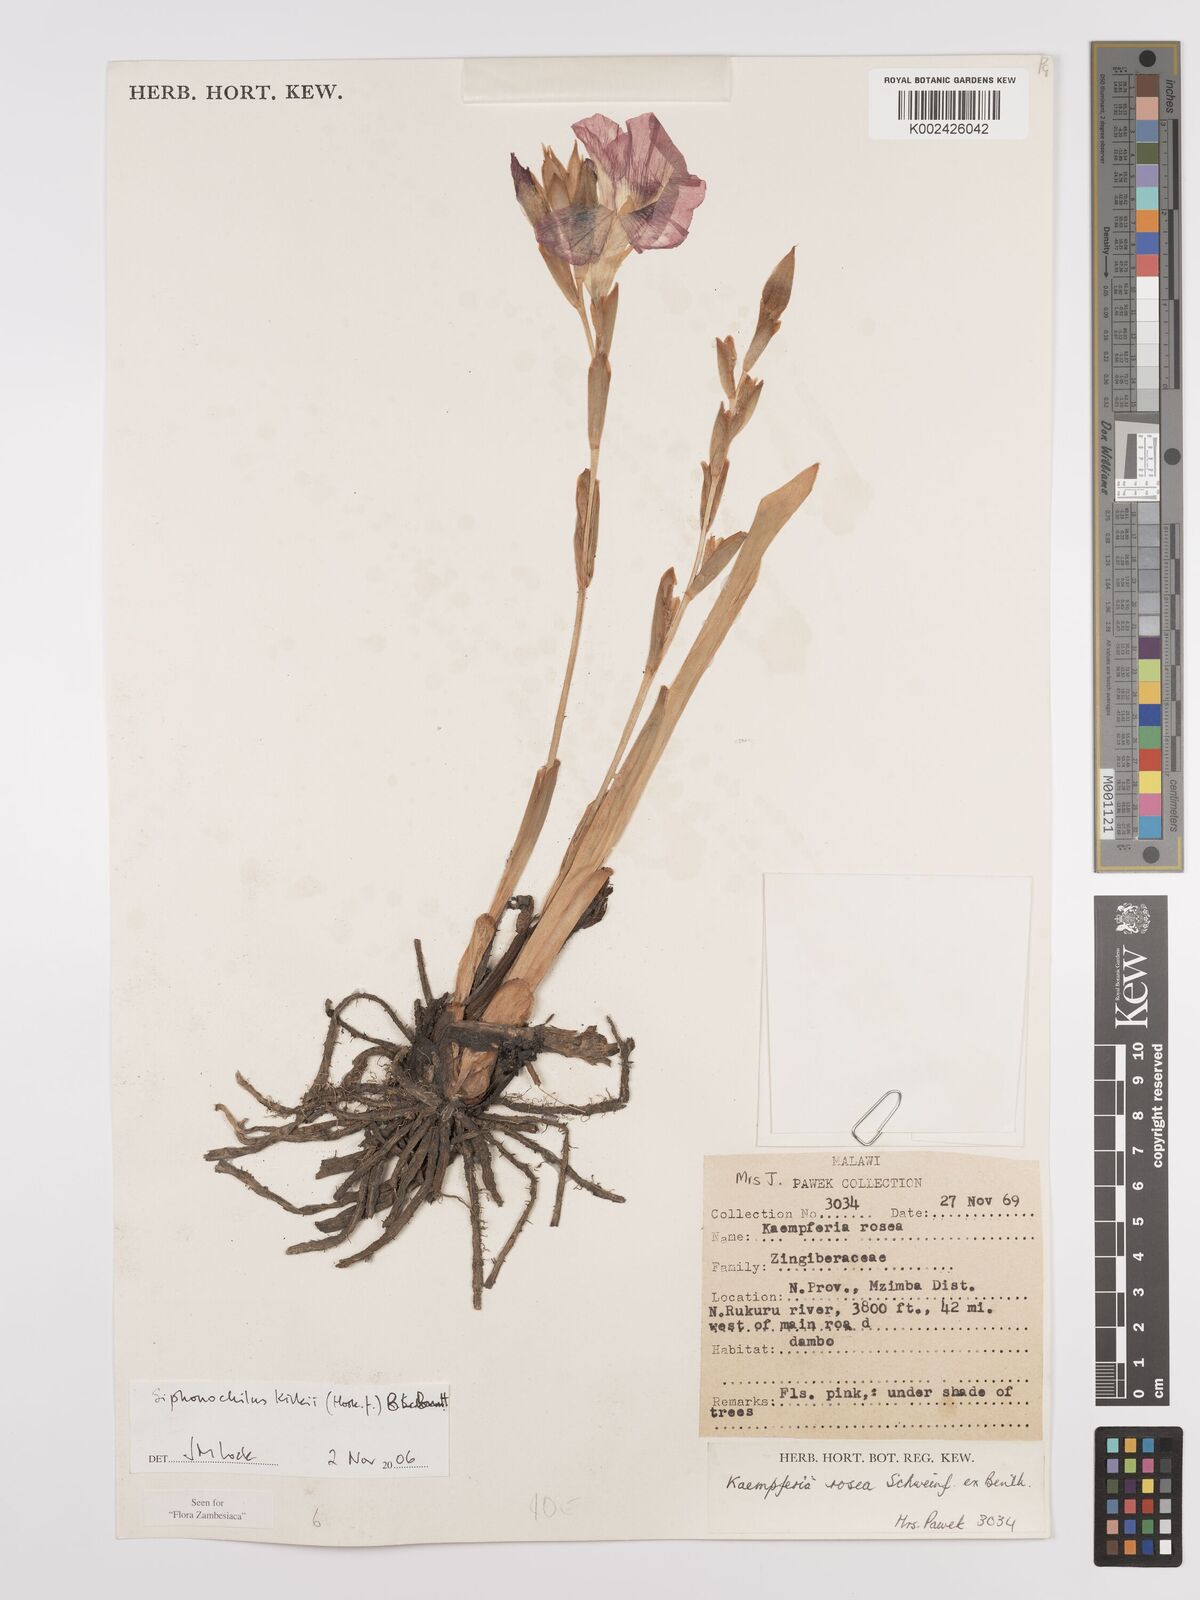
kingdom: Plantae
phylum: Tracheophyta
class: Liliopsida
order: Zingiberales
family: Zingiberaceae
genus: Siphonochilus
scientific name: Siphonochilus kirkii
